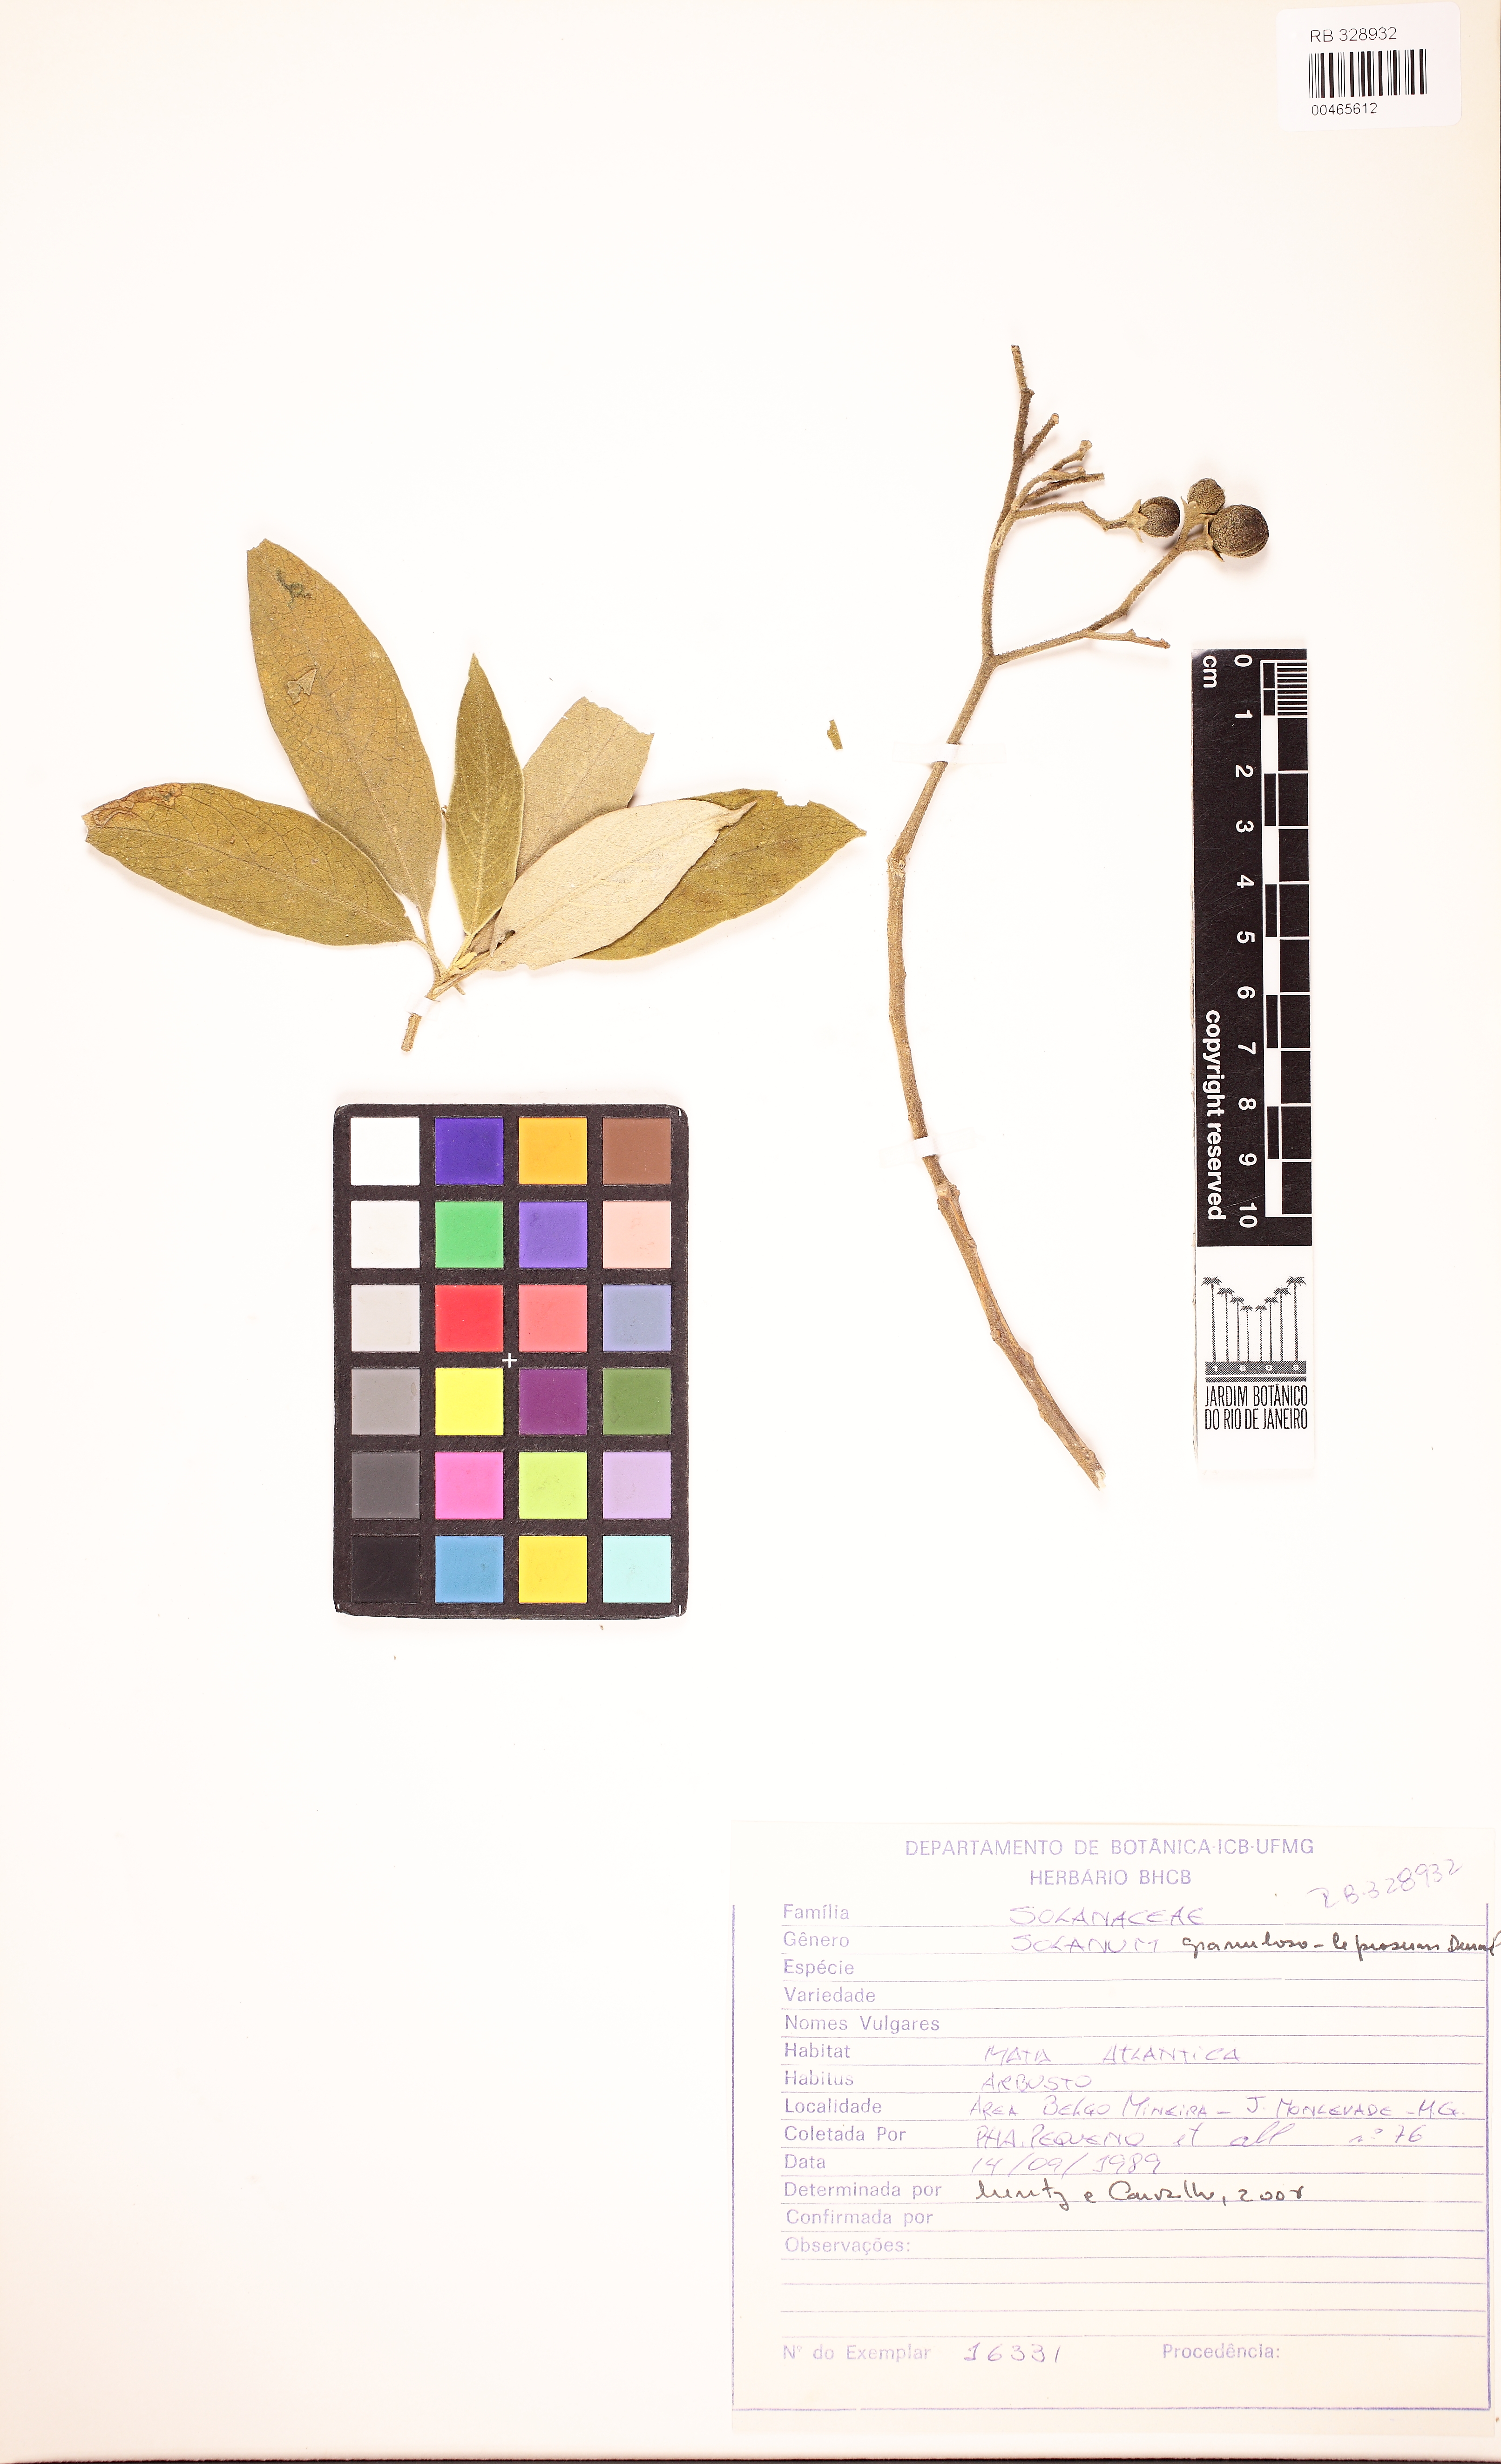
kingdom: Plantae
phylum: Tracheophyta
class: Magnoliopsida
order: Solanales
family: Solanaceae
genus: Solanum
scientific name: Solanum granulosoleprosum
